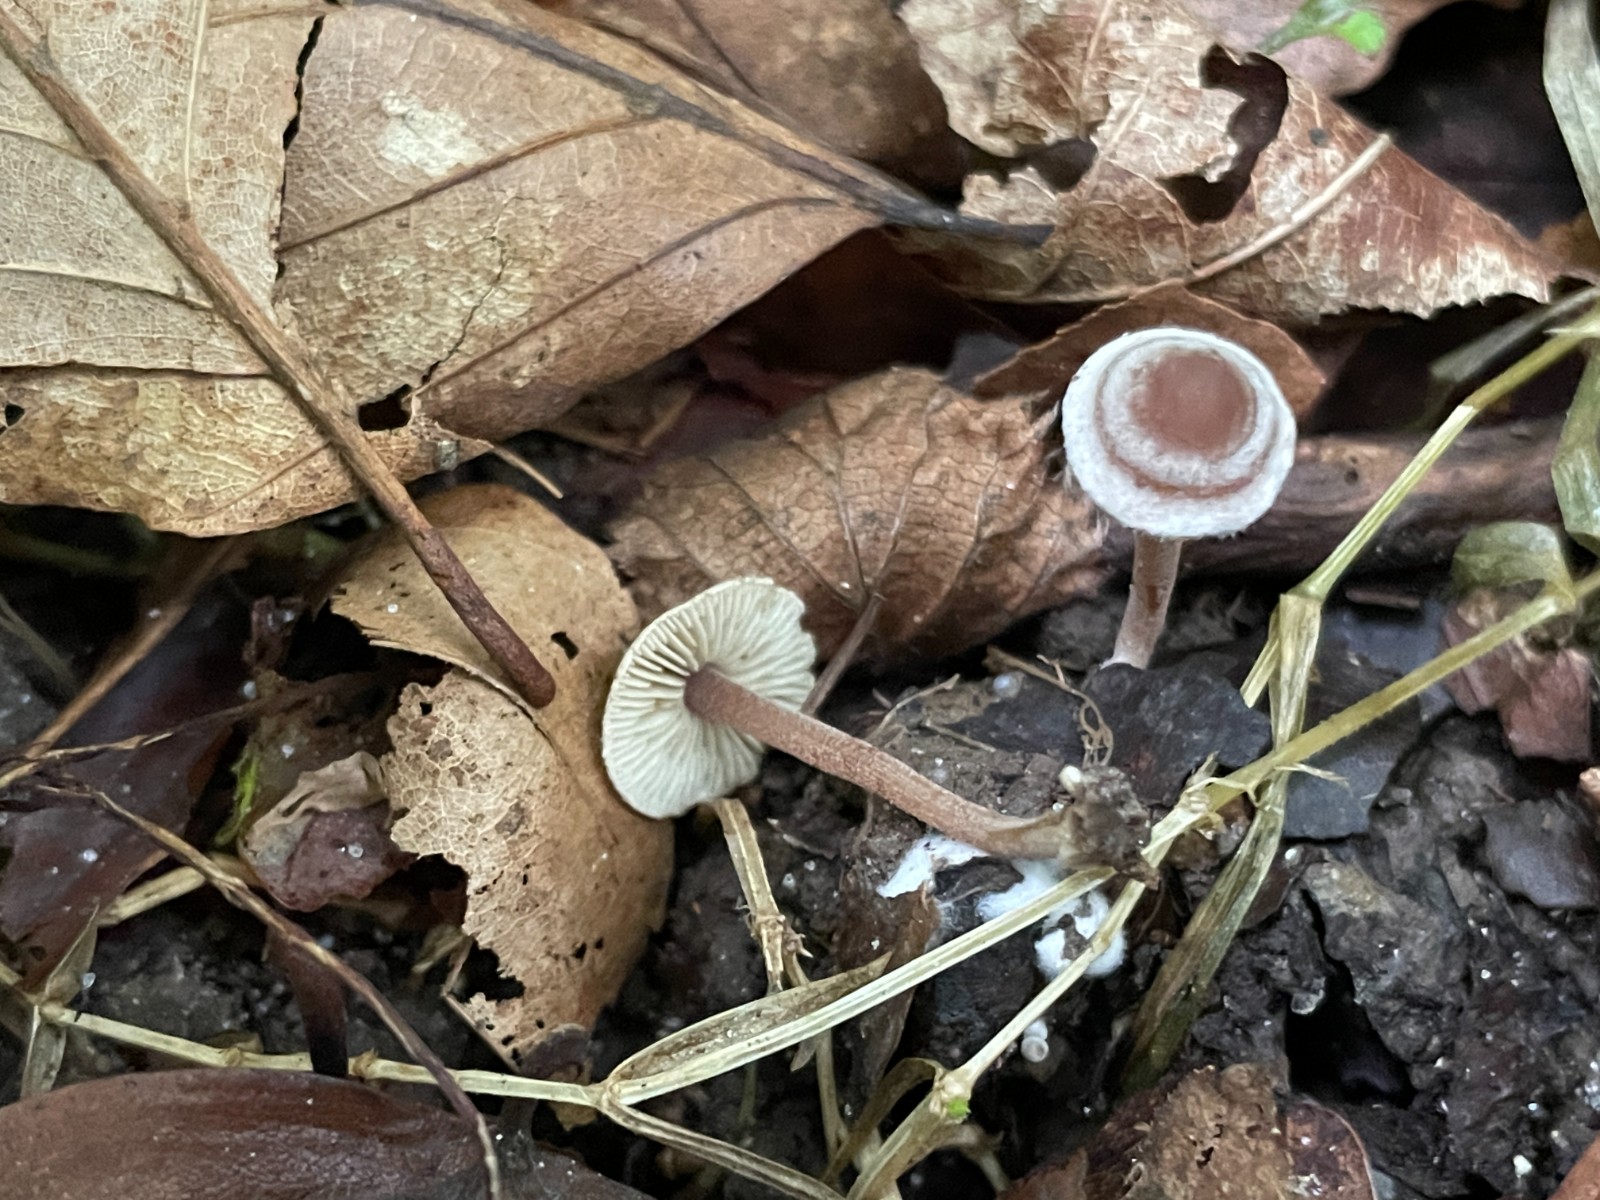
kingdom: Fungi
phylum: Basidiomycota
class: Agaricomycetes
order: Agaricales
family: Inocybaceae
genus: Inocybe
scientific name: Inocybe petiginosa
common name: liden trævlhat
